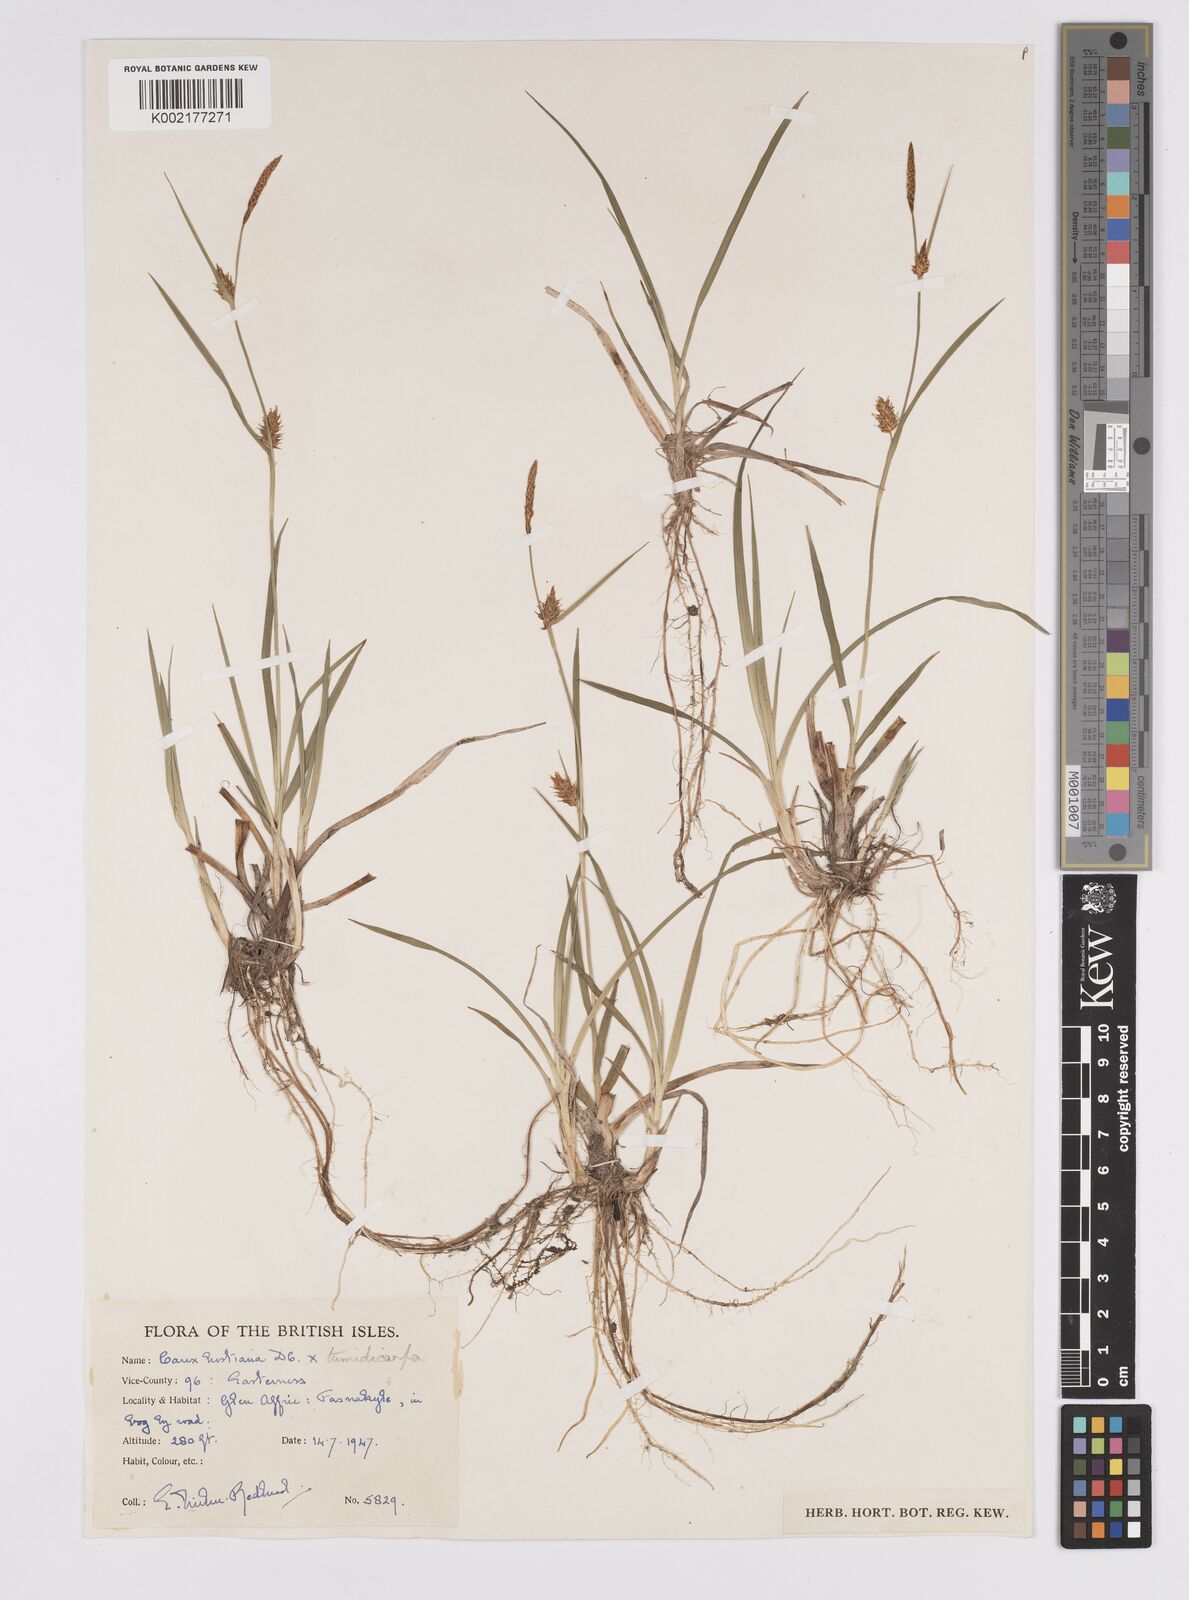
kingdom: Plantae
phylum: Tracheophyta
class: Liliopsida
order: Poales
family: Cyperaceae
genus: Carex
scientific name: Carex hostiana
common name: Tawny sedge
